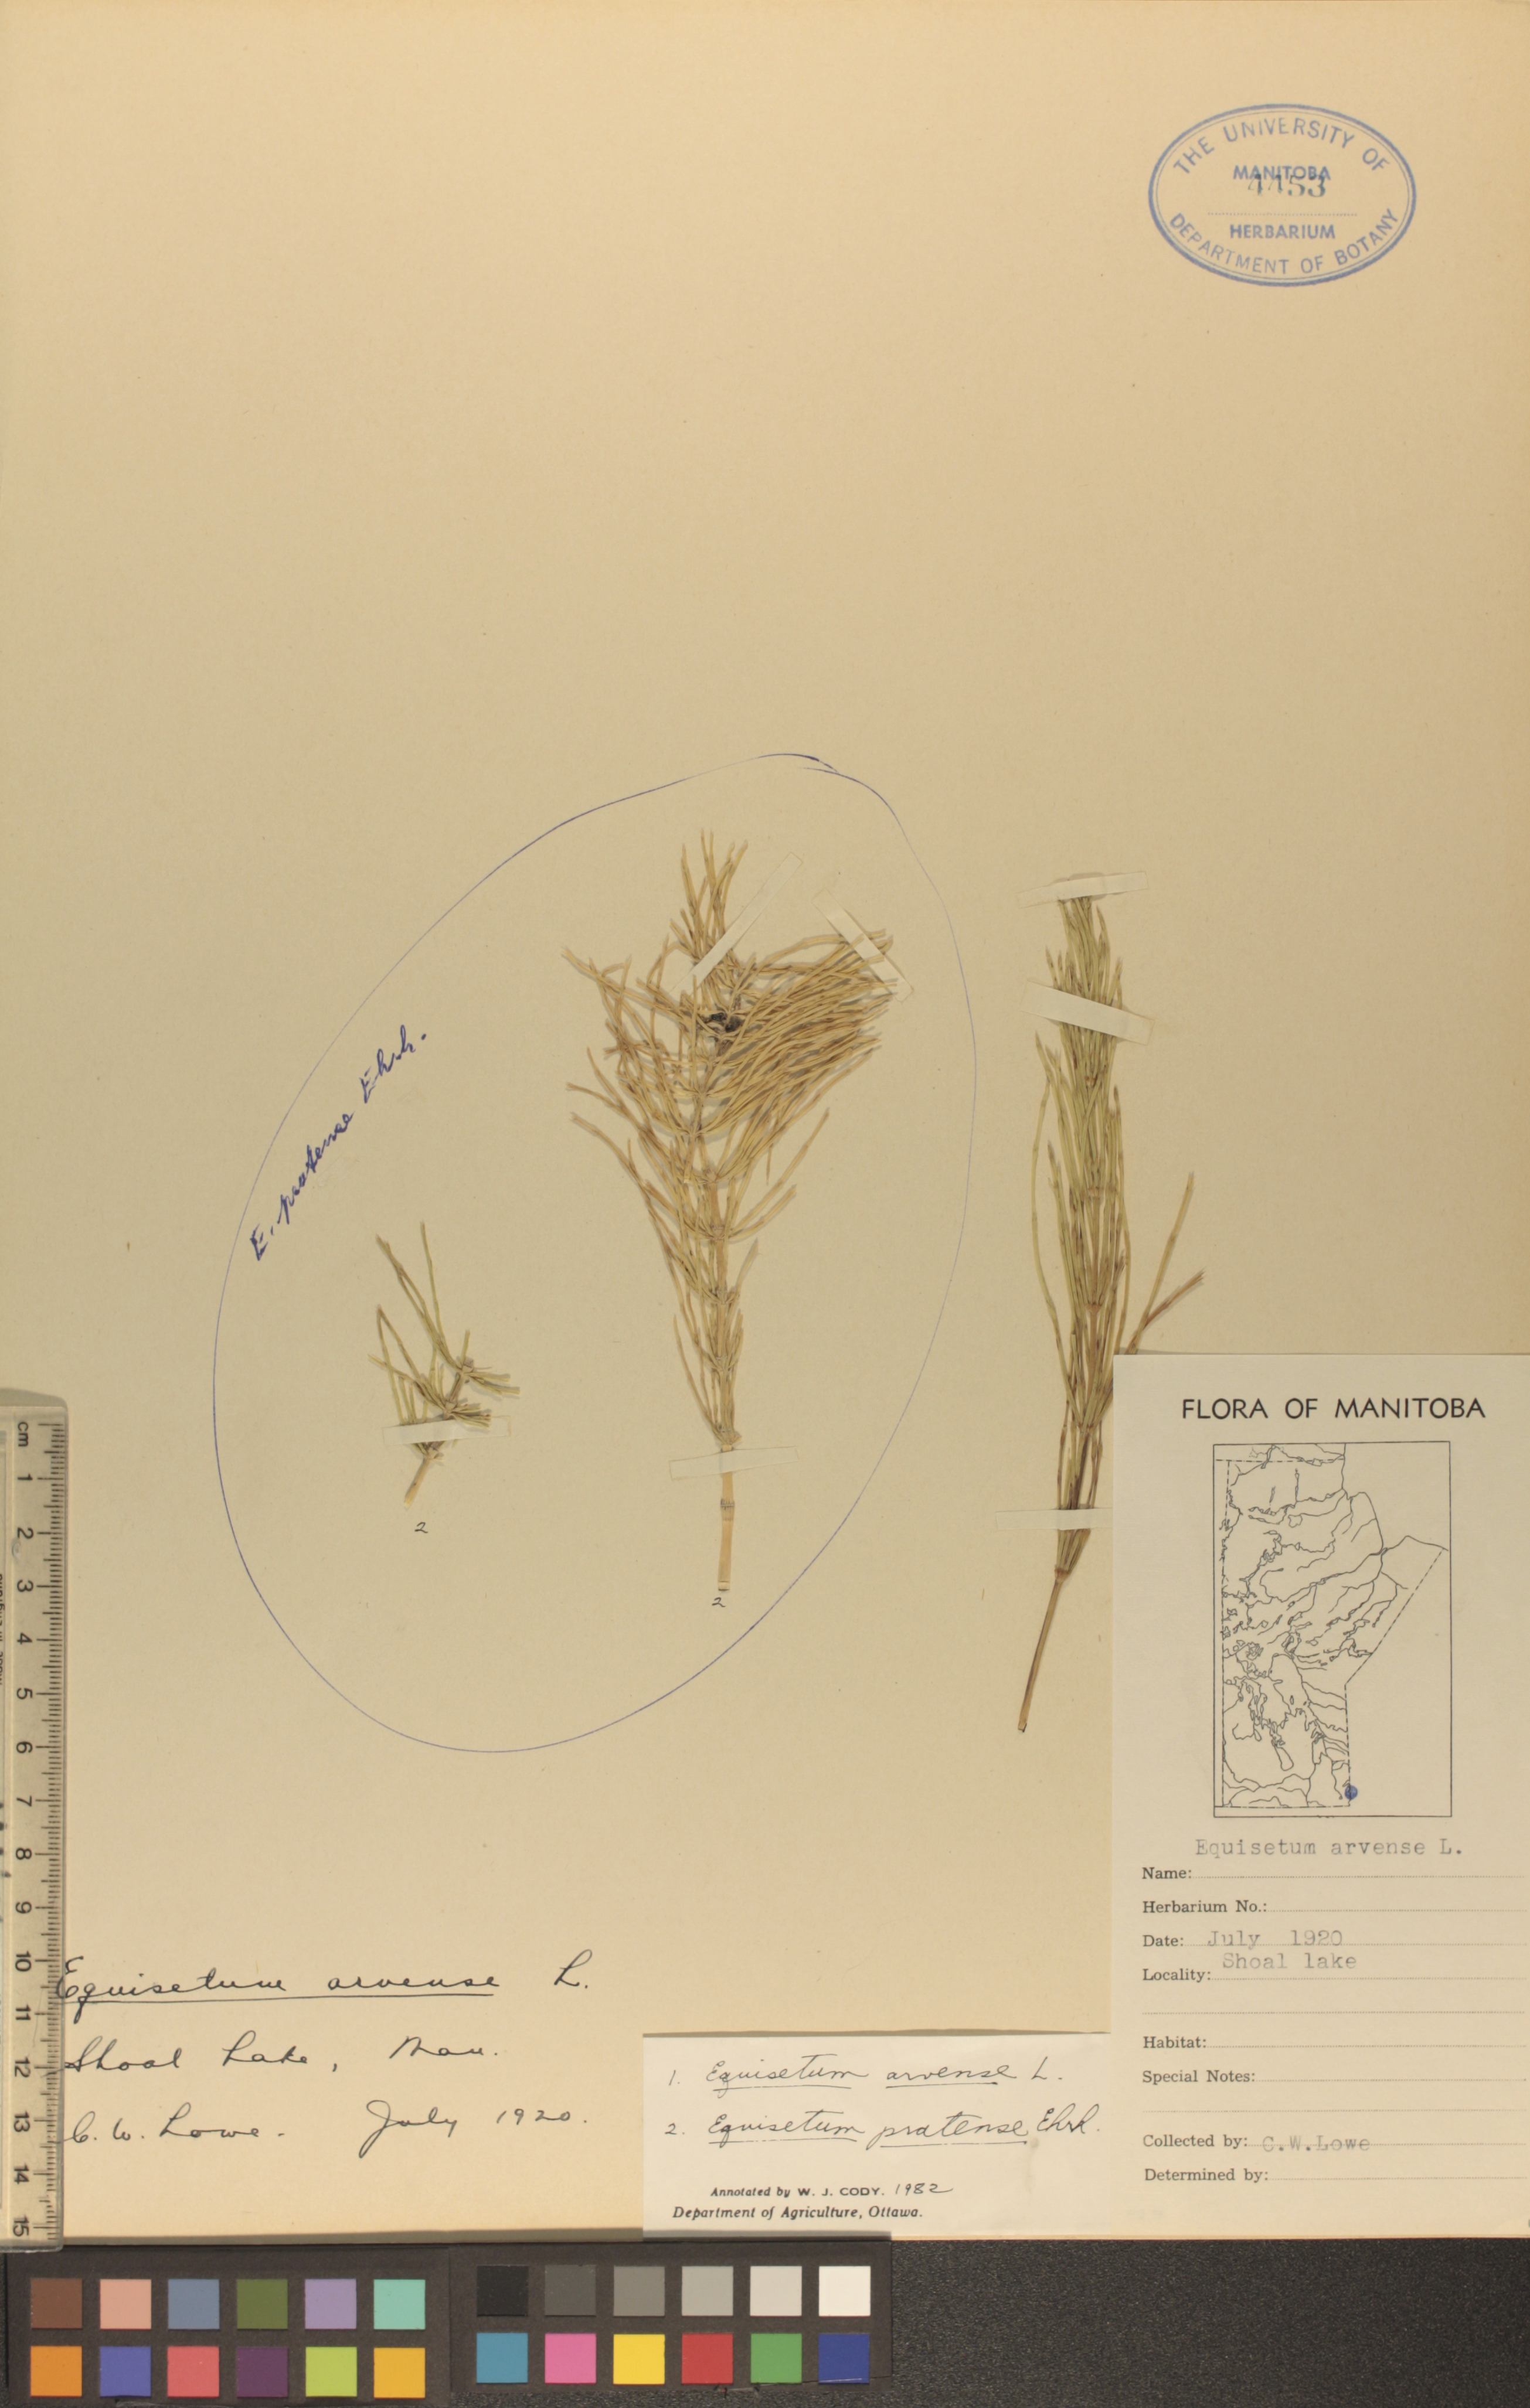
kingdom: Plantae
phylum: Tracheophyta
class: Polypodiopsida
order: Equisetales
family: Equisetaceae
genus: Equisetum
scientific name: Equisetum pratense
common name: Meadow horsetail
